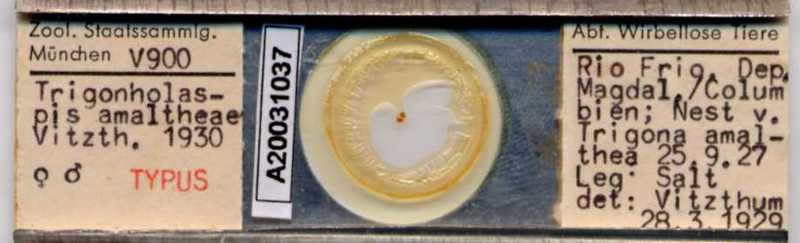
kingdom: Animalia
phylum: Arthropoda
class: Arachnida
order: Mesostigmata
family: Macrochelidae
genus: Trigonholaspis
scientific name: Trigonholaspis
